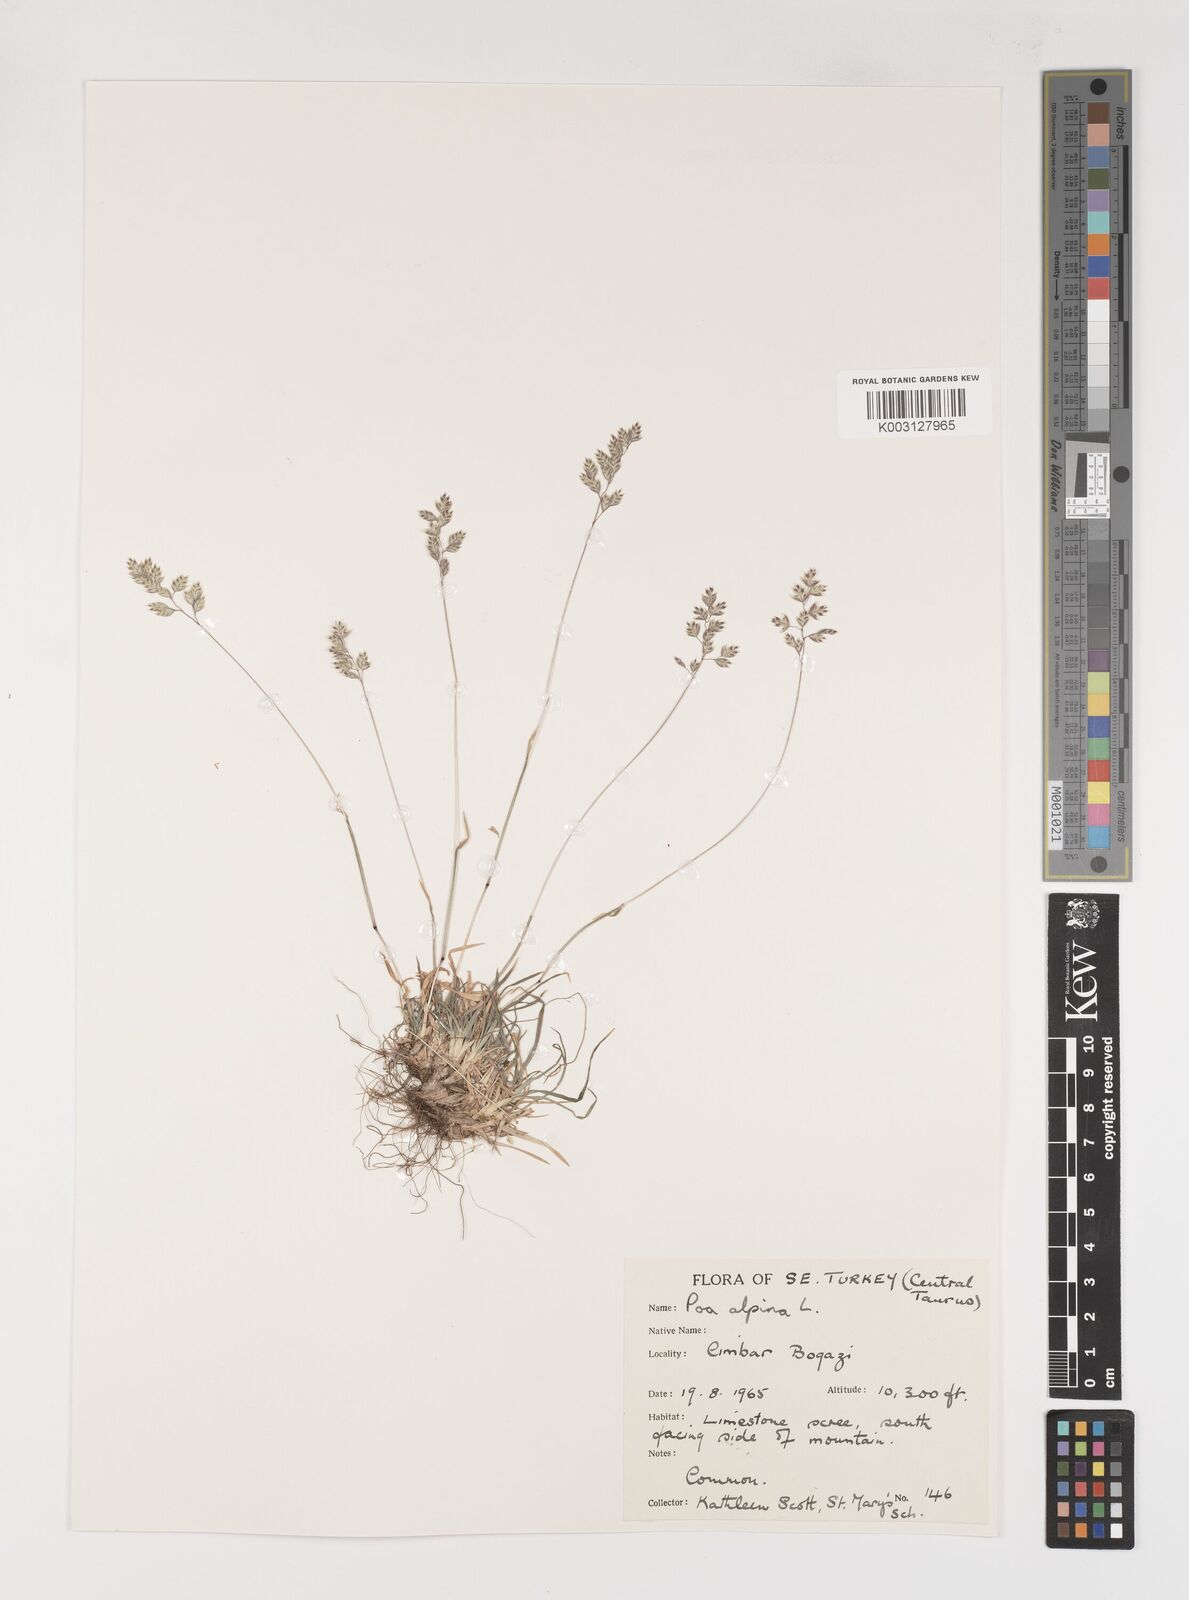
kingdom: Plantae
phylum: Tracheophyta
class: Liliopsida
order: Poales
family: Poaceae
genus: Poa
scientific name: Poa alpina
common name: Alpine bluegrass
